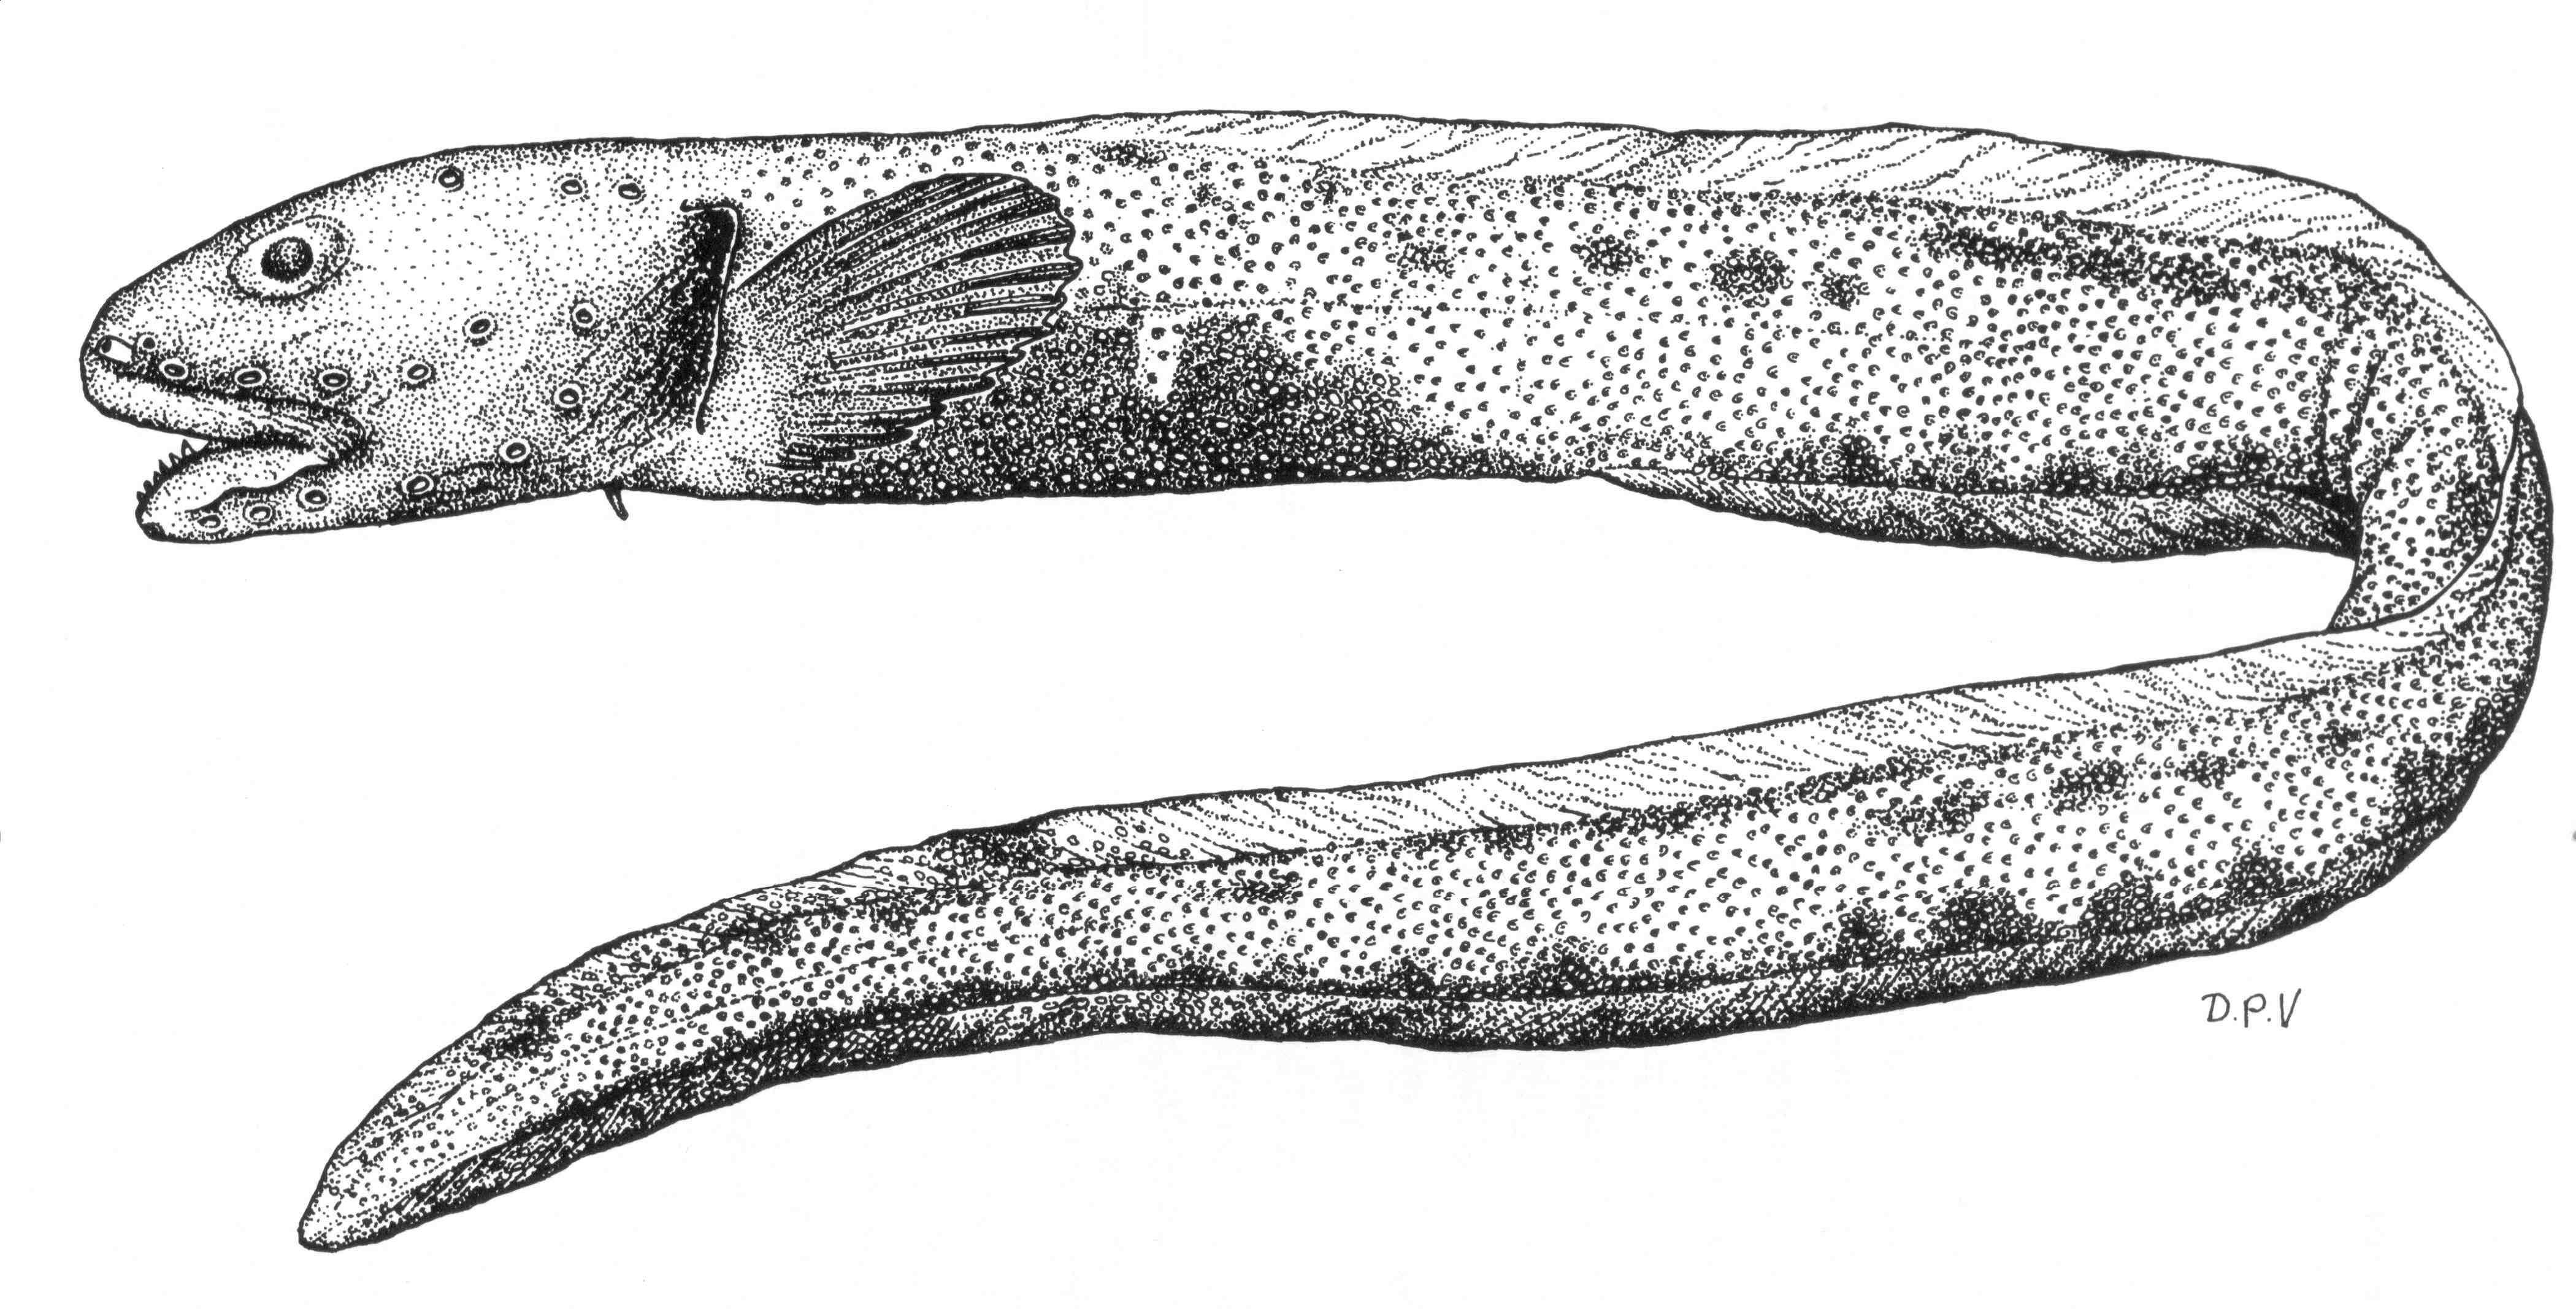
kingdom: Animalia
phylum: Chordata
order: Perciformes
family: Zoarcidae
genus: Lycenchelys
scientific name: Lycenchelys
